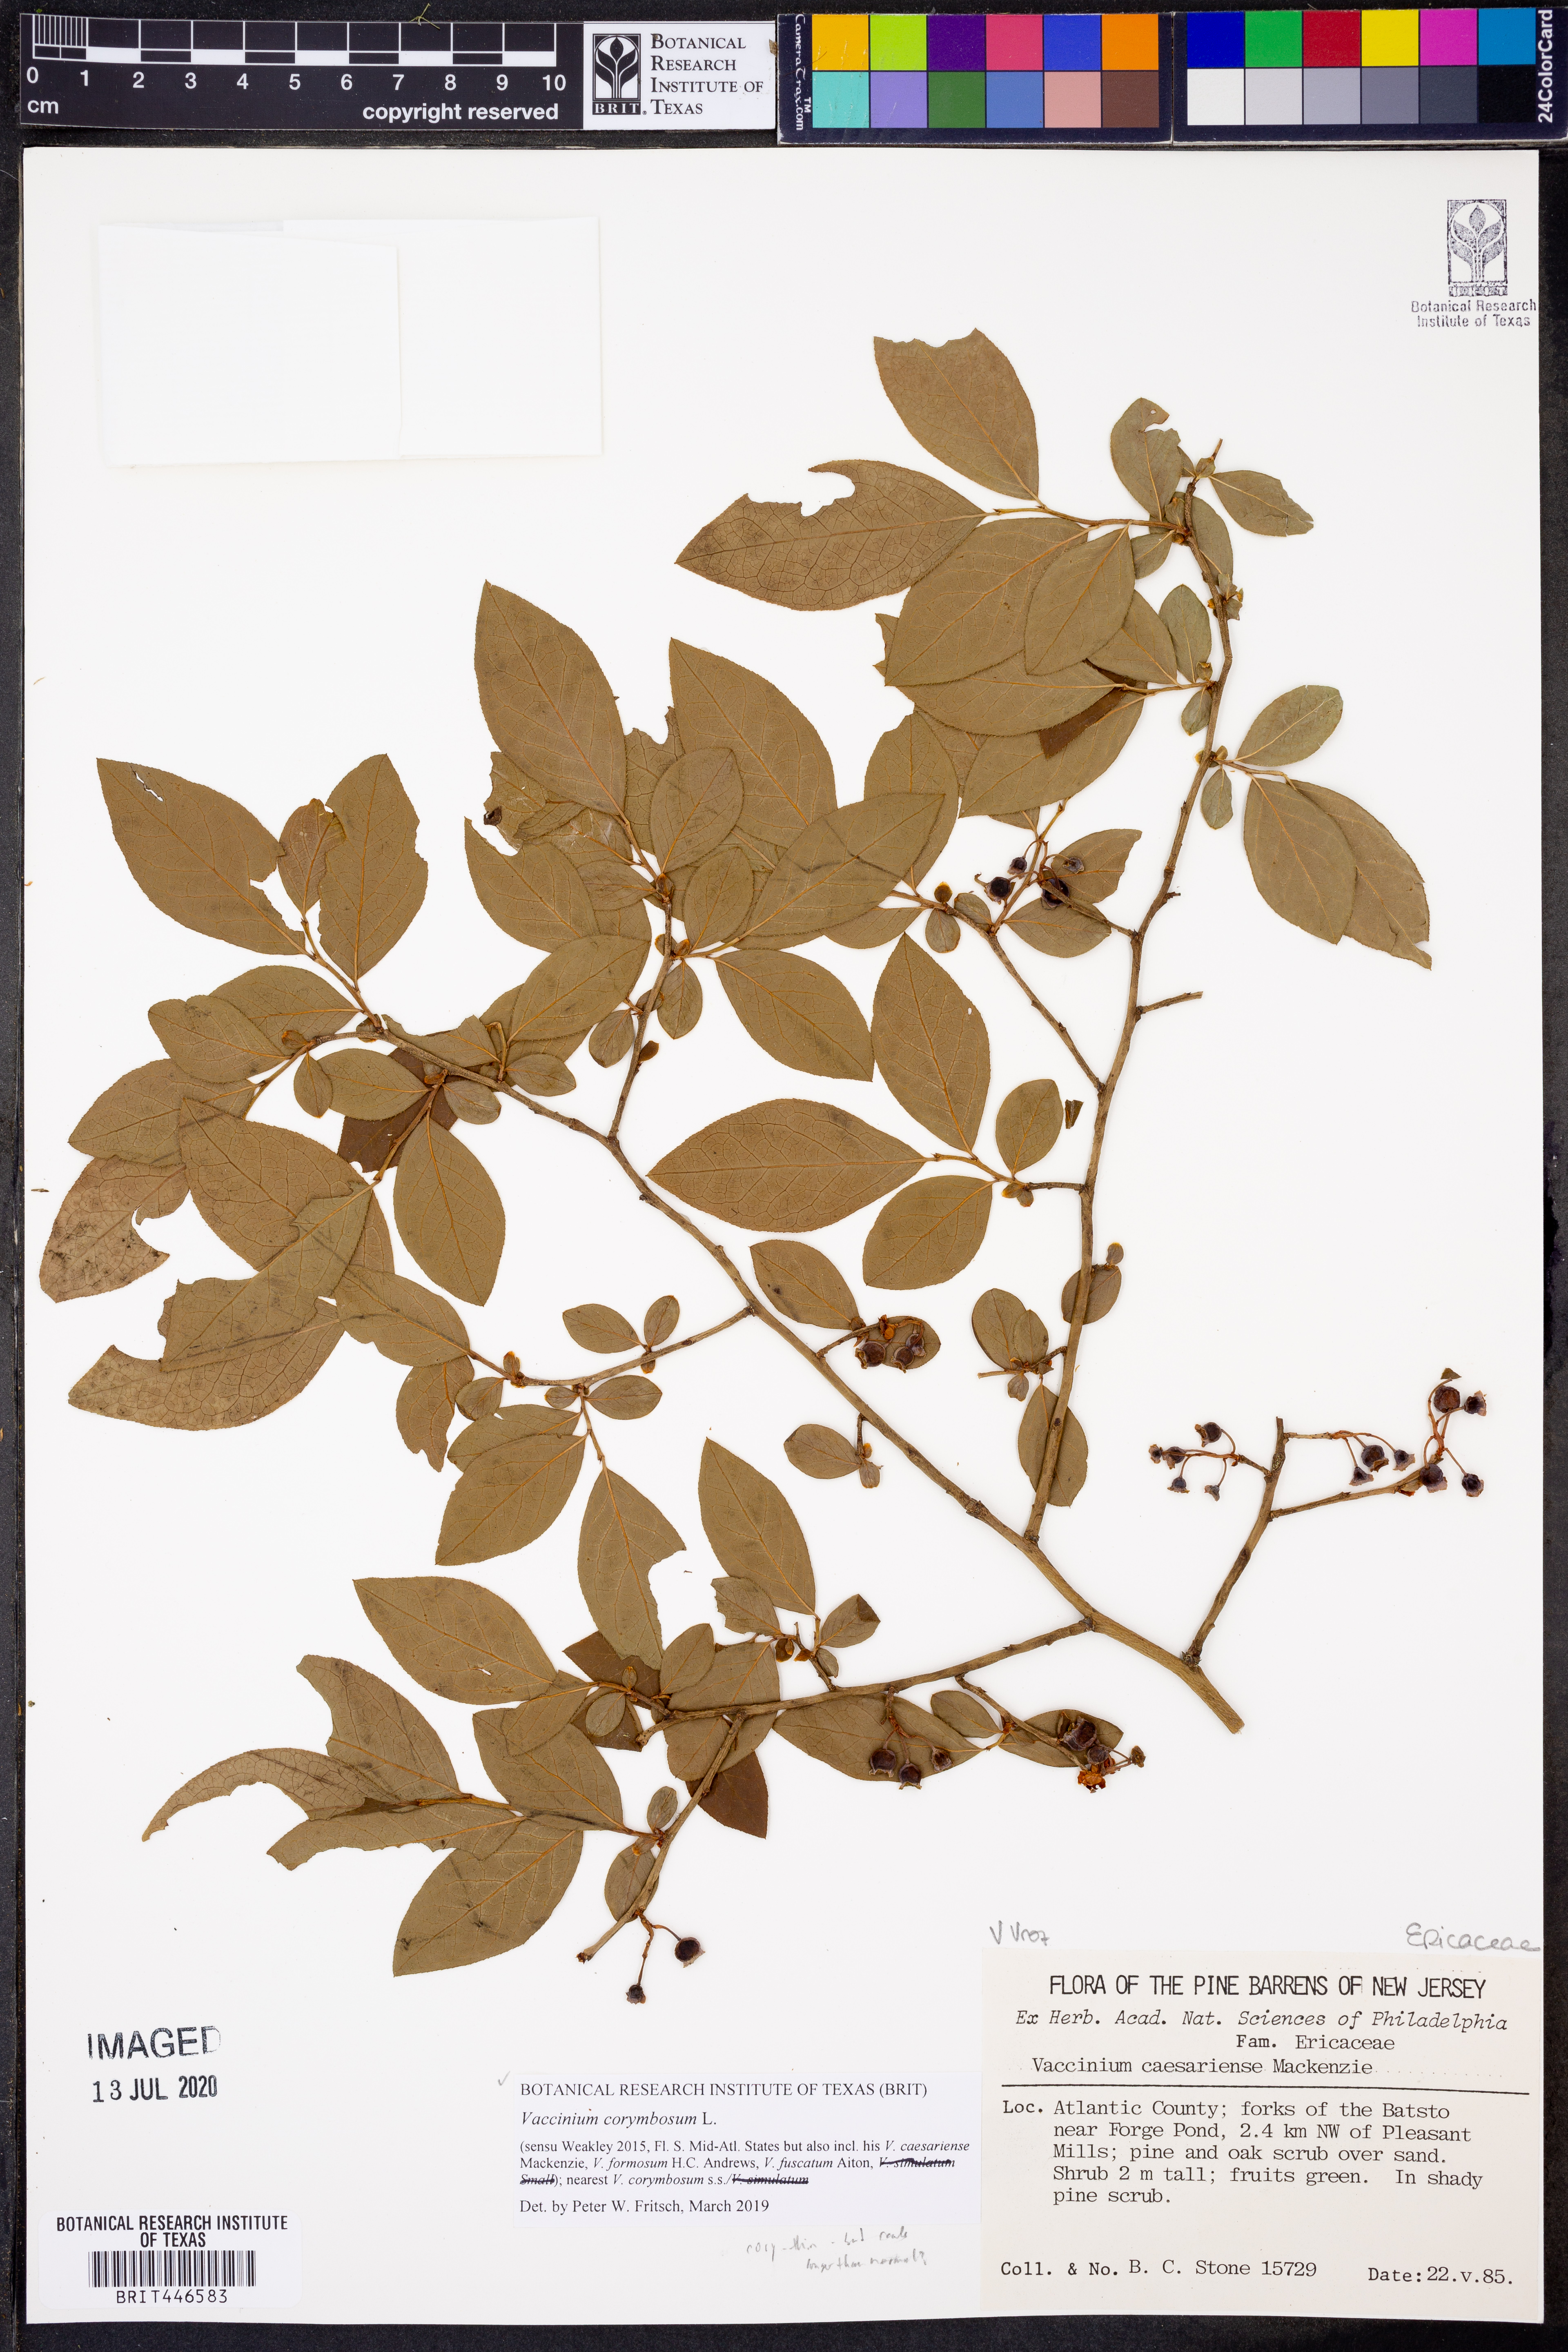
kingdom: Plantae
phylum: Tracheophyta
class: Magnoliopsida
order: Ericales
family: Ericaceae
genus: Vaccinium
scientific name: Vaccinium corymbosum
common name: Blueberry
